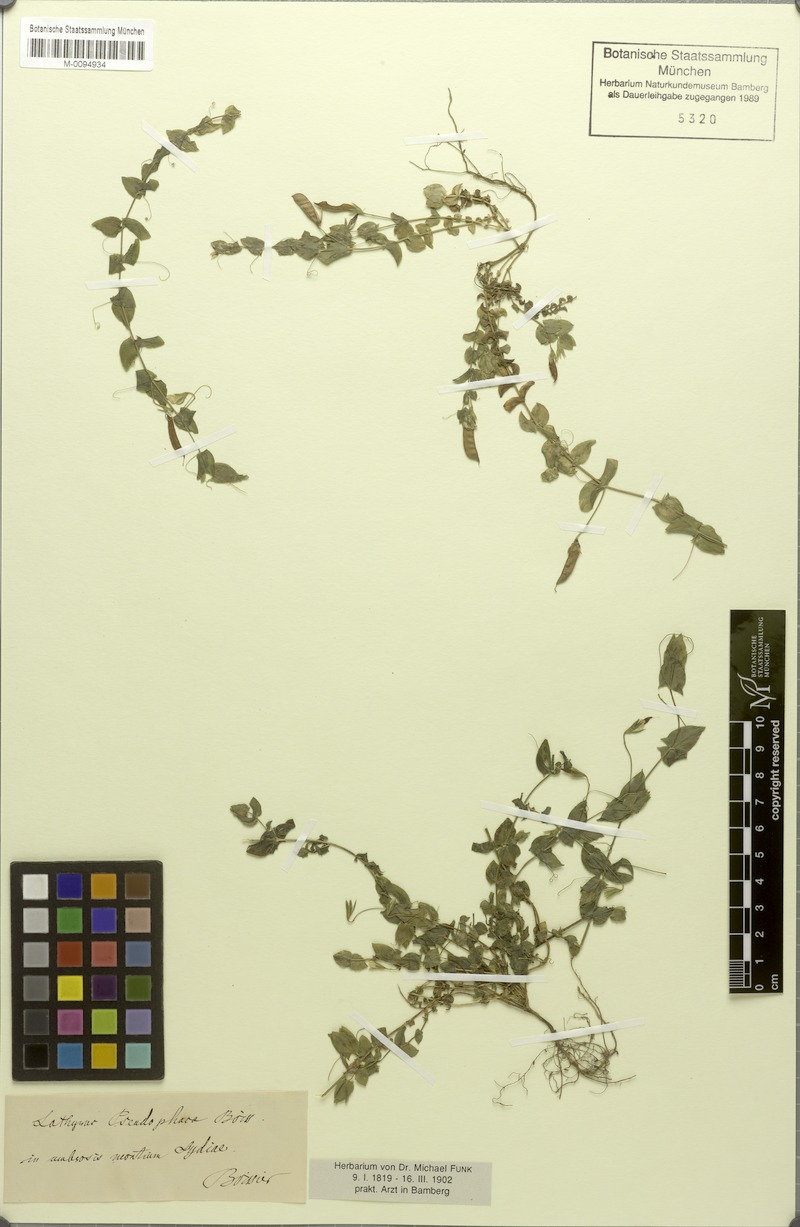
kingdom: Plantae
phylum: Tracheophyta
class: Magnoliopsida
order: Fabales
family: Fabaceae
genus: Lathyrus
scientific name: Lathyrus aphaca
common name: Yellow vetchling
